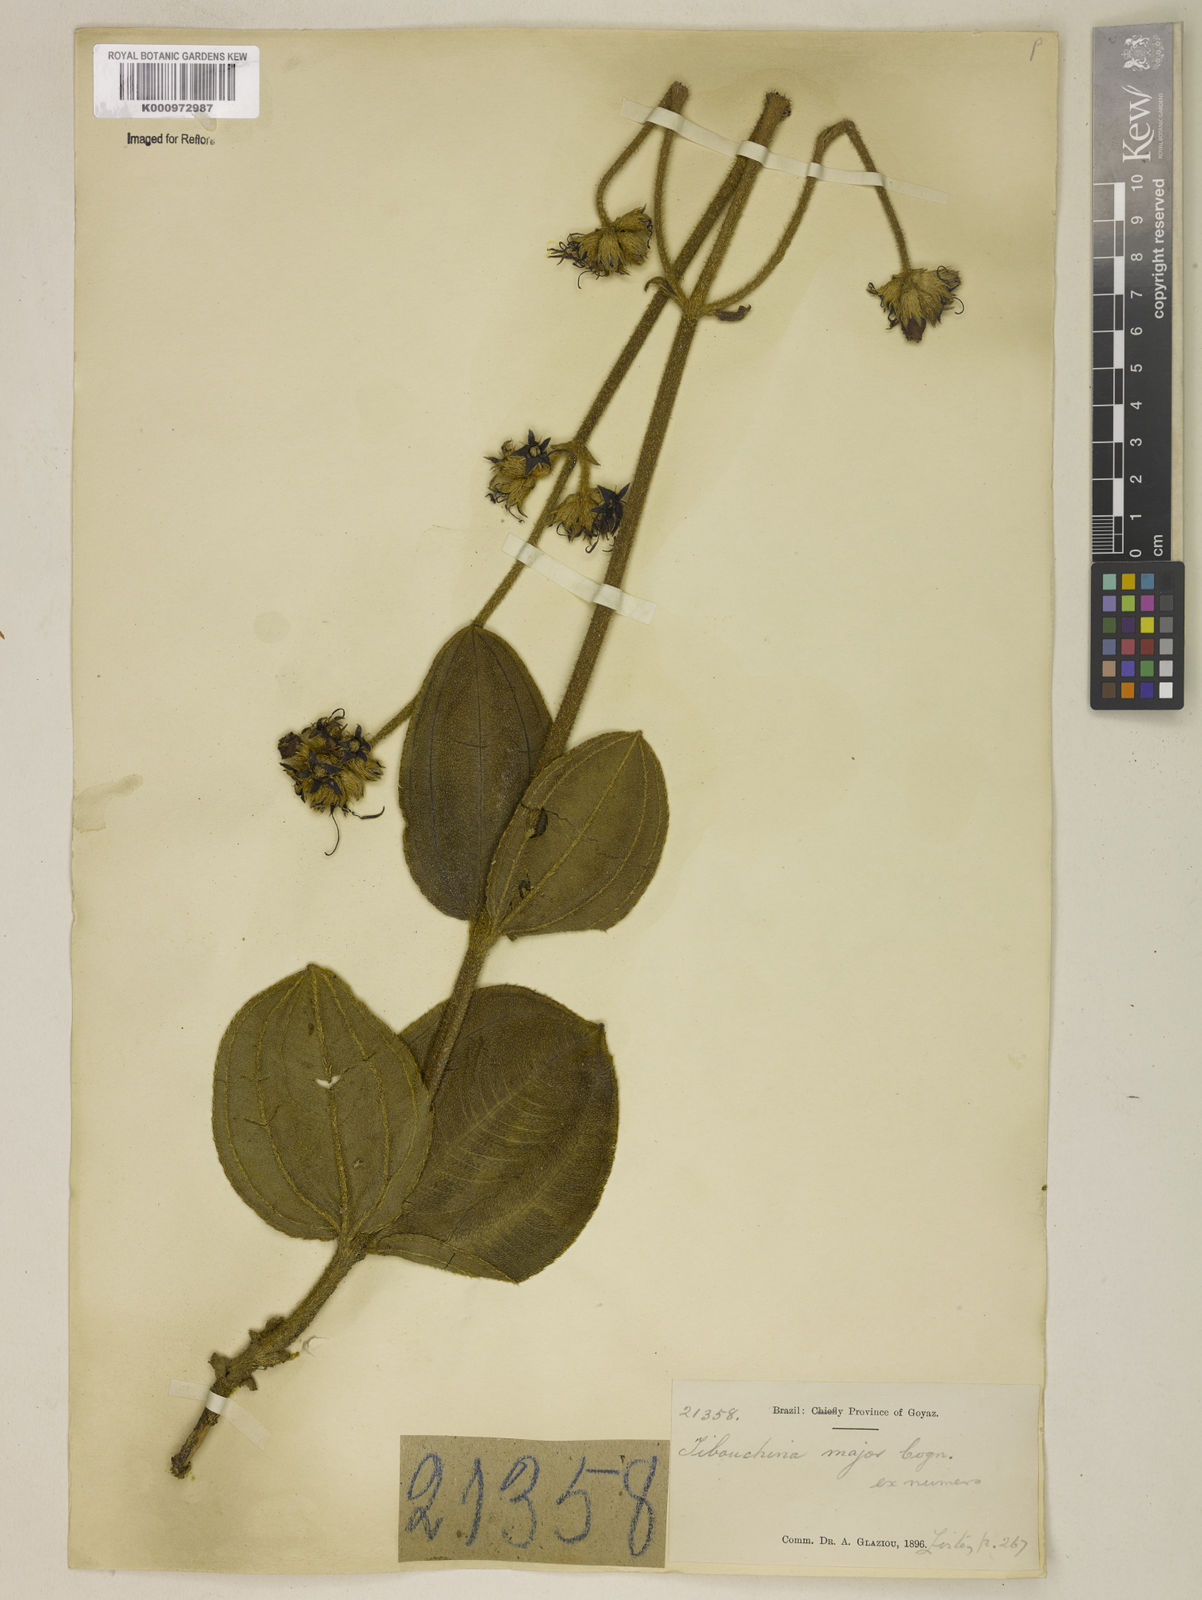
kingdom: Plantae
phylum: Tracheophyta
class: Magnoliopsida
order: Myrtales
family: Melastomataceae
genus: Tibouchina
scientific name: Tibouchina
